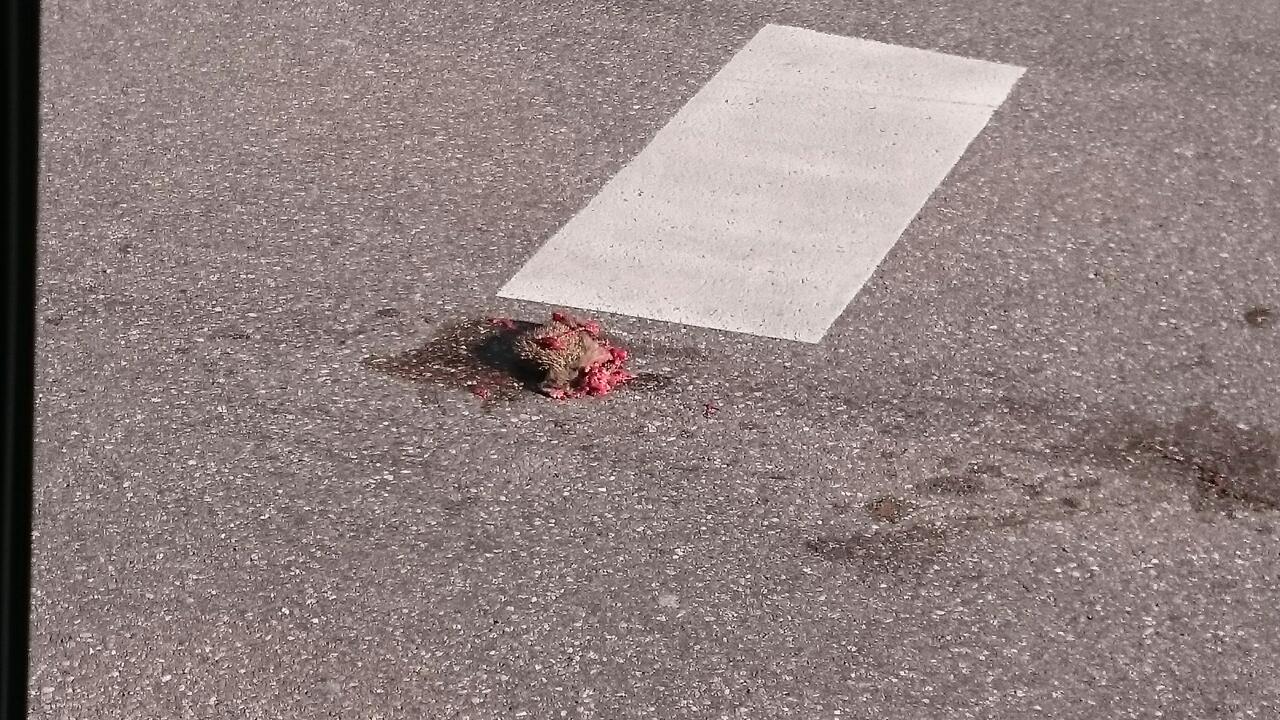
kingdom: Animalia
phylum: Chordata
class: Mammalia
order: Erinaceomorpha
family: Erinaceidae
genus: Erinaceus
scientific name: Erinaceus
